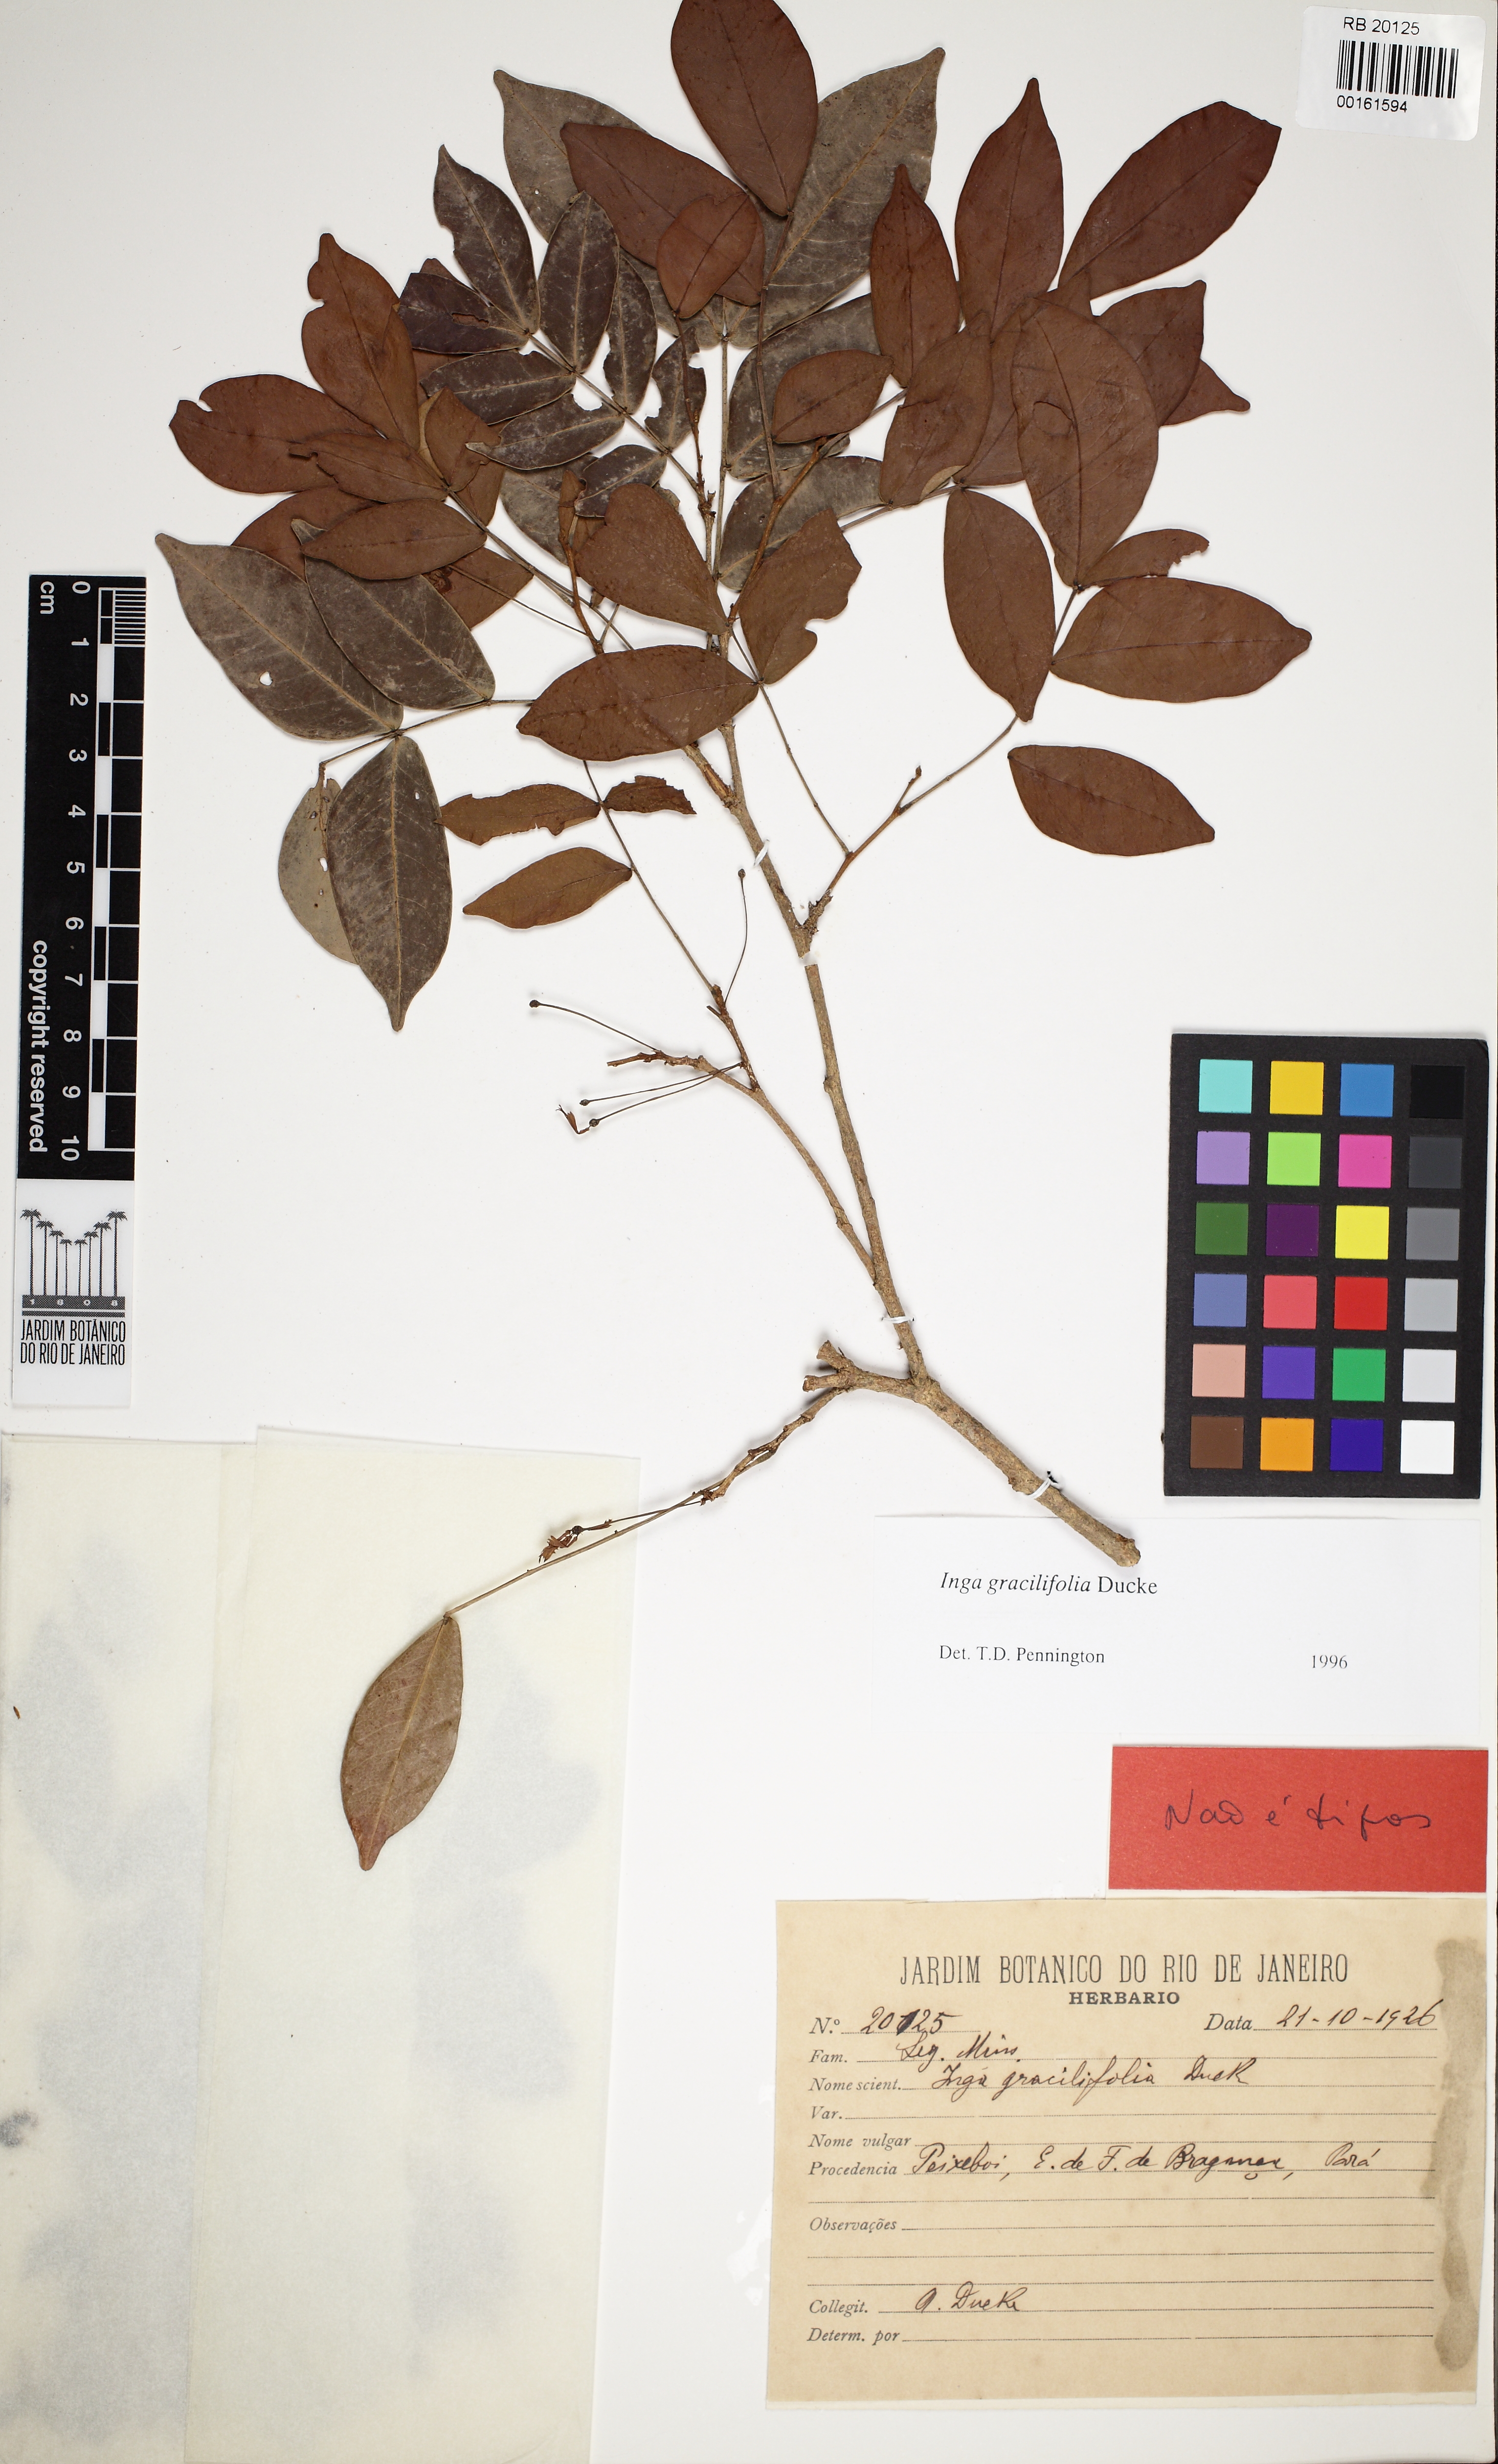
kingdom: Plantae
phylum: Tracheophyta
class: Magnoliopsida
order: Fabales
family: Fabaceae
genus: Inga
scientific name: Inga gracilifolia
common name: Gracefulleaf inga
